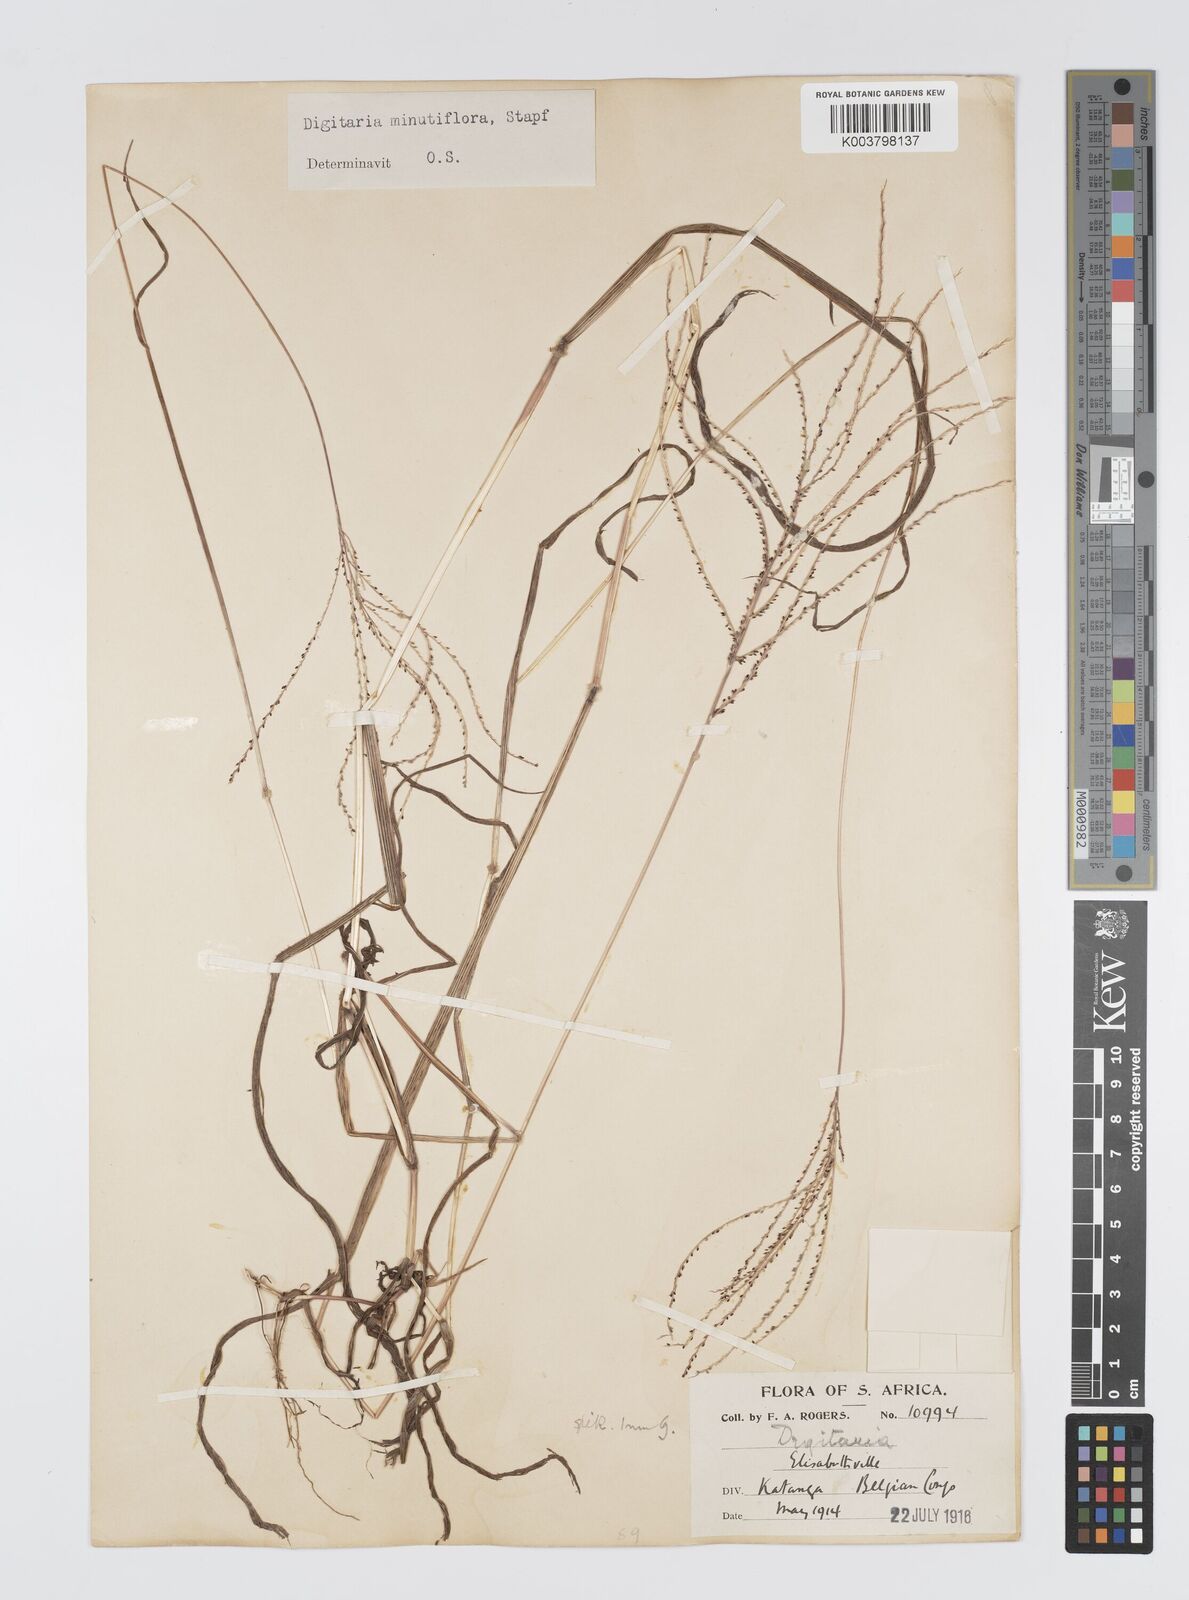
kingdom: Plantae
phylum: Tracheophyta
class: Liliopsida
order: Poales
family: Poaceae
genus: Digitaria
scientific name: Digitaria pseudodiagonalis
